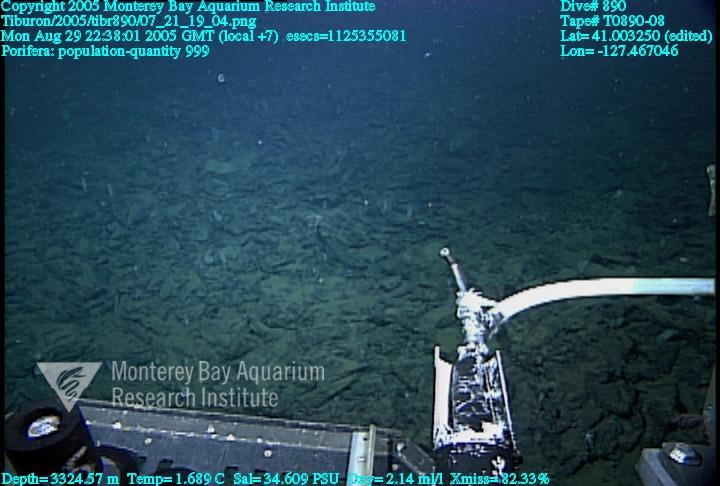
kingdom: Animalia
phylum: Porifera
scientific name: Porifera
